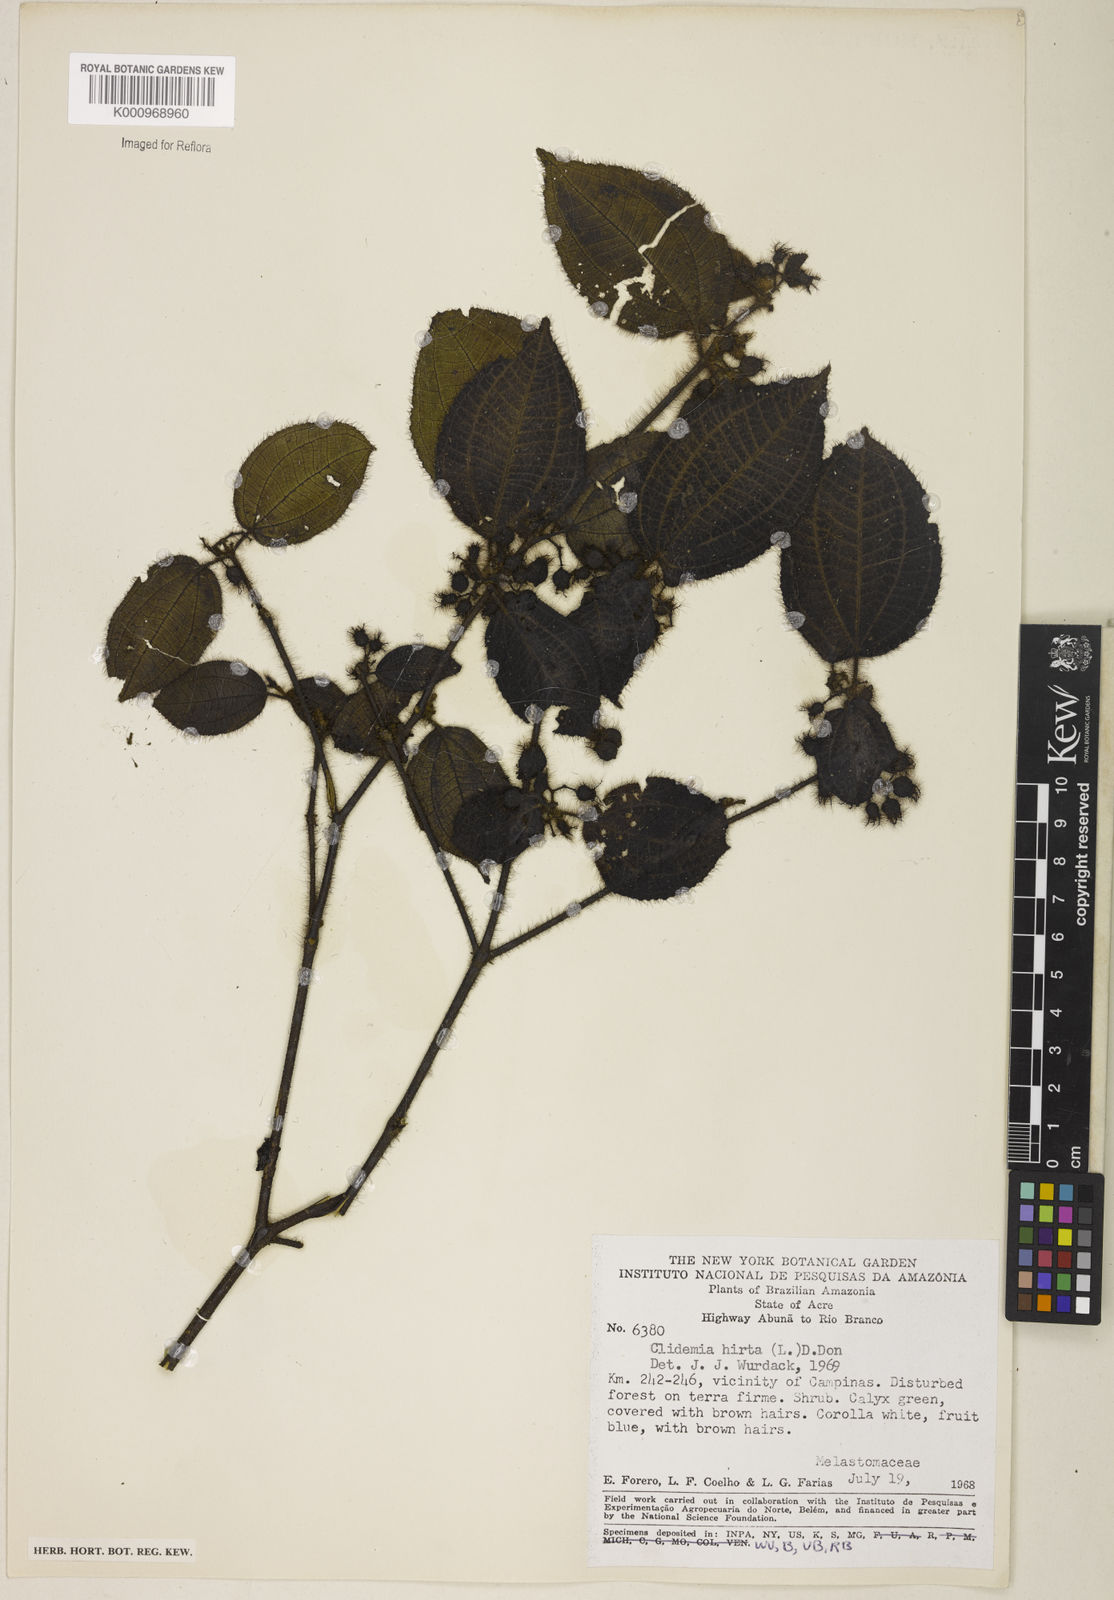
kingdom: Plantae
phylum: Tracheophyta
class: Magnoliopsida
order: Myrtales
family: Melastomataceae
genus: Miconia
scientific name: Miconia crenata
